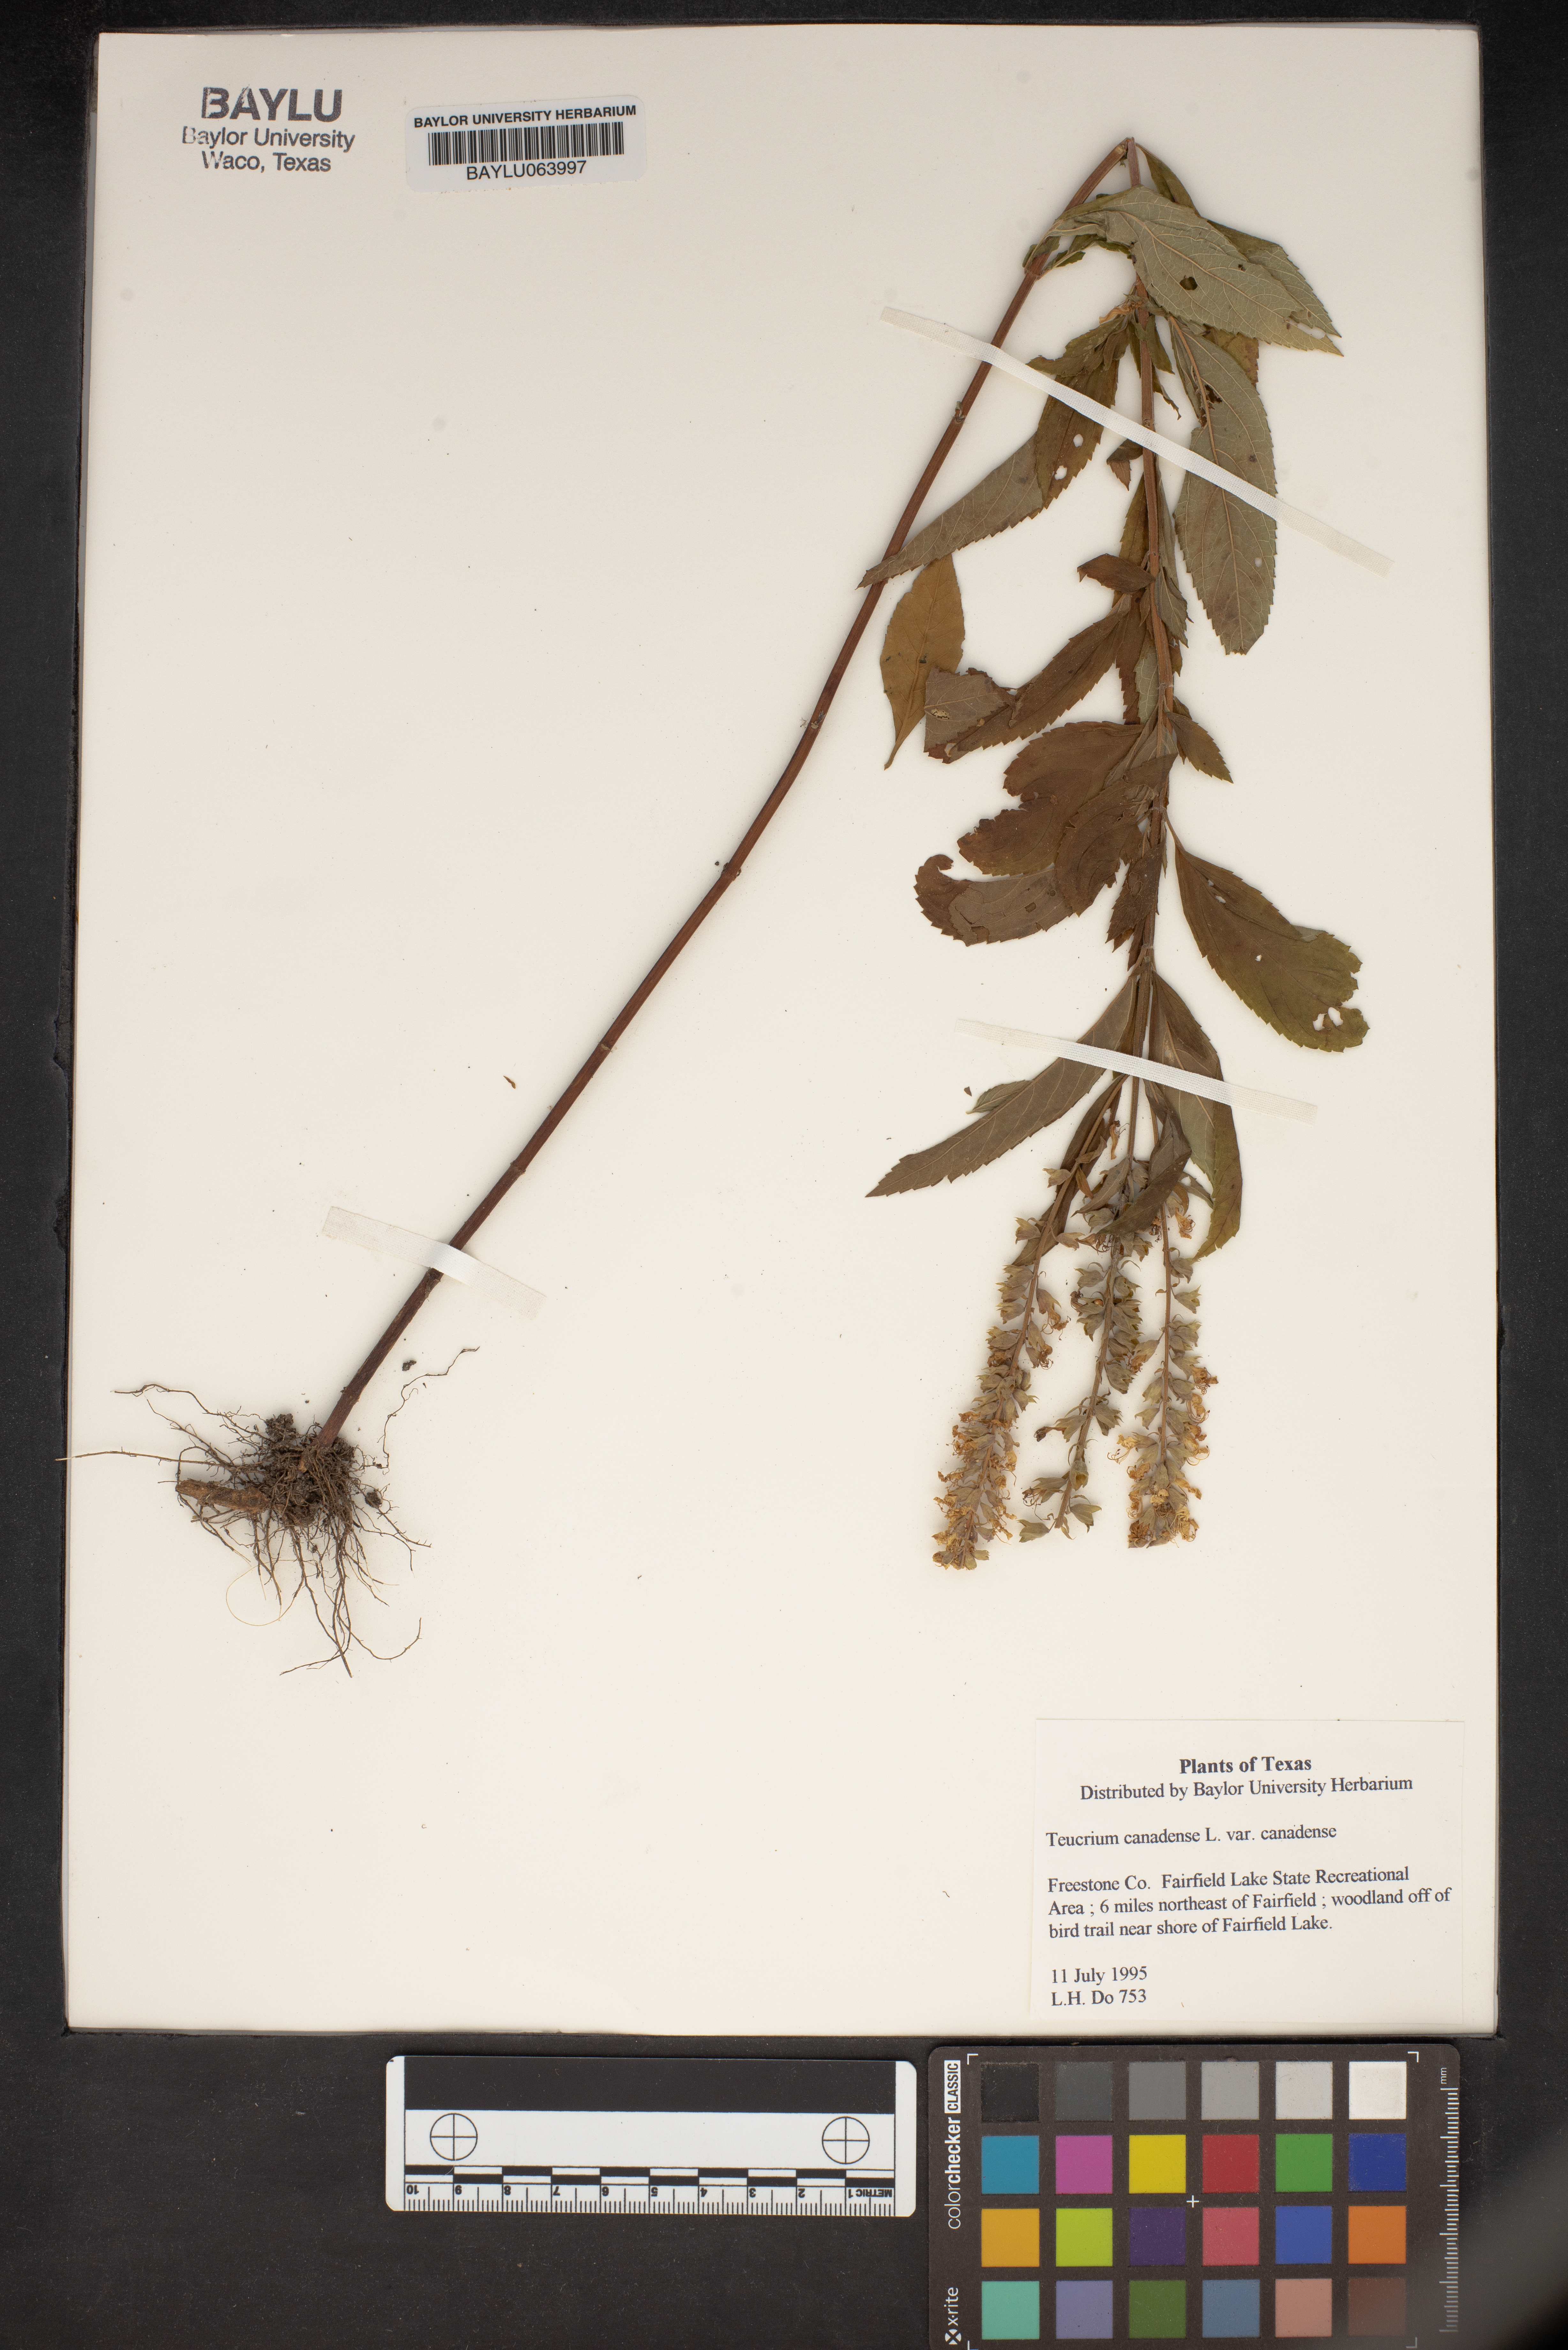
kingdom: Plantae
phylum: Tracheophyta
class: Magnoliopsida
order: Lamiales
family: Lamiaceae
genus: Teucrium
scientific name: Teucrium canadense
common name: American germander
